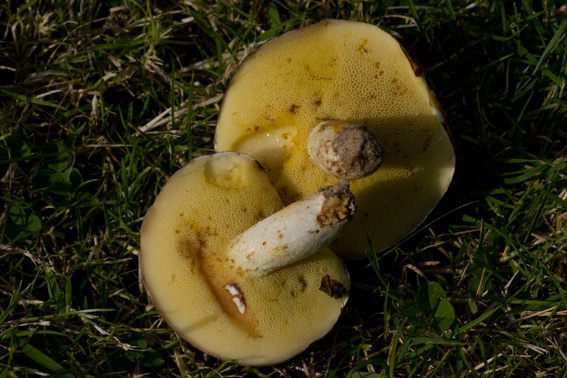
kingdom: Fungi
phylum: Basidiomycota
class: Agaricomycetes
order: Boletales
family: Suillaceae
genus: Suillus
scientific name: Suillus granulatus
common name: kornet slimrørhat
